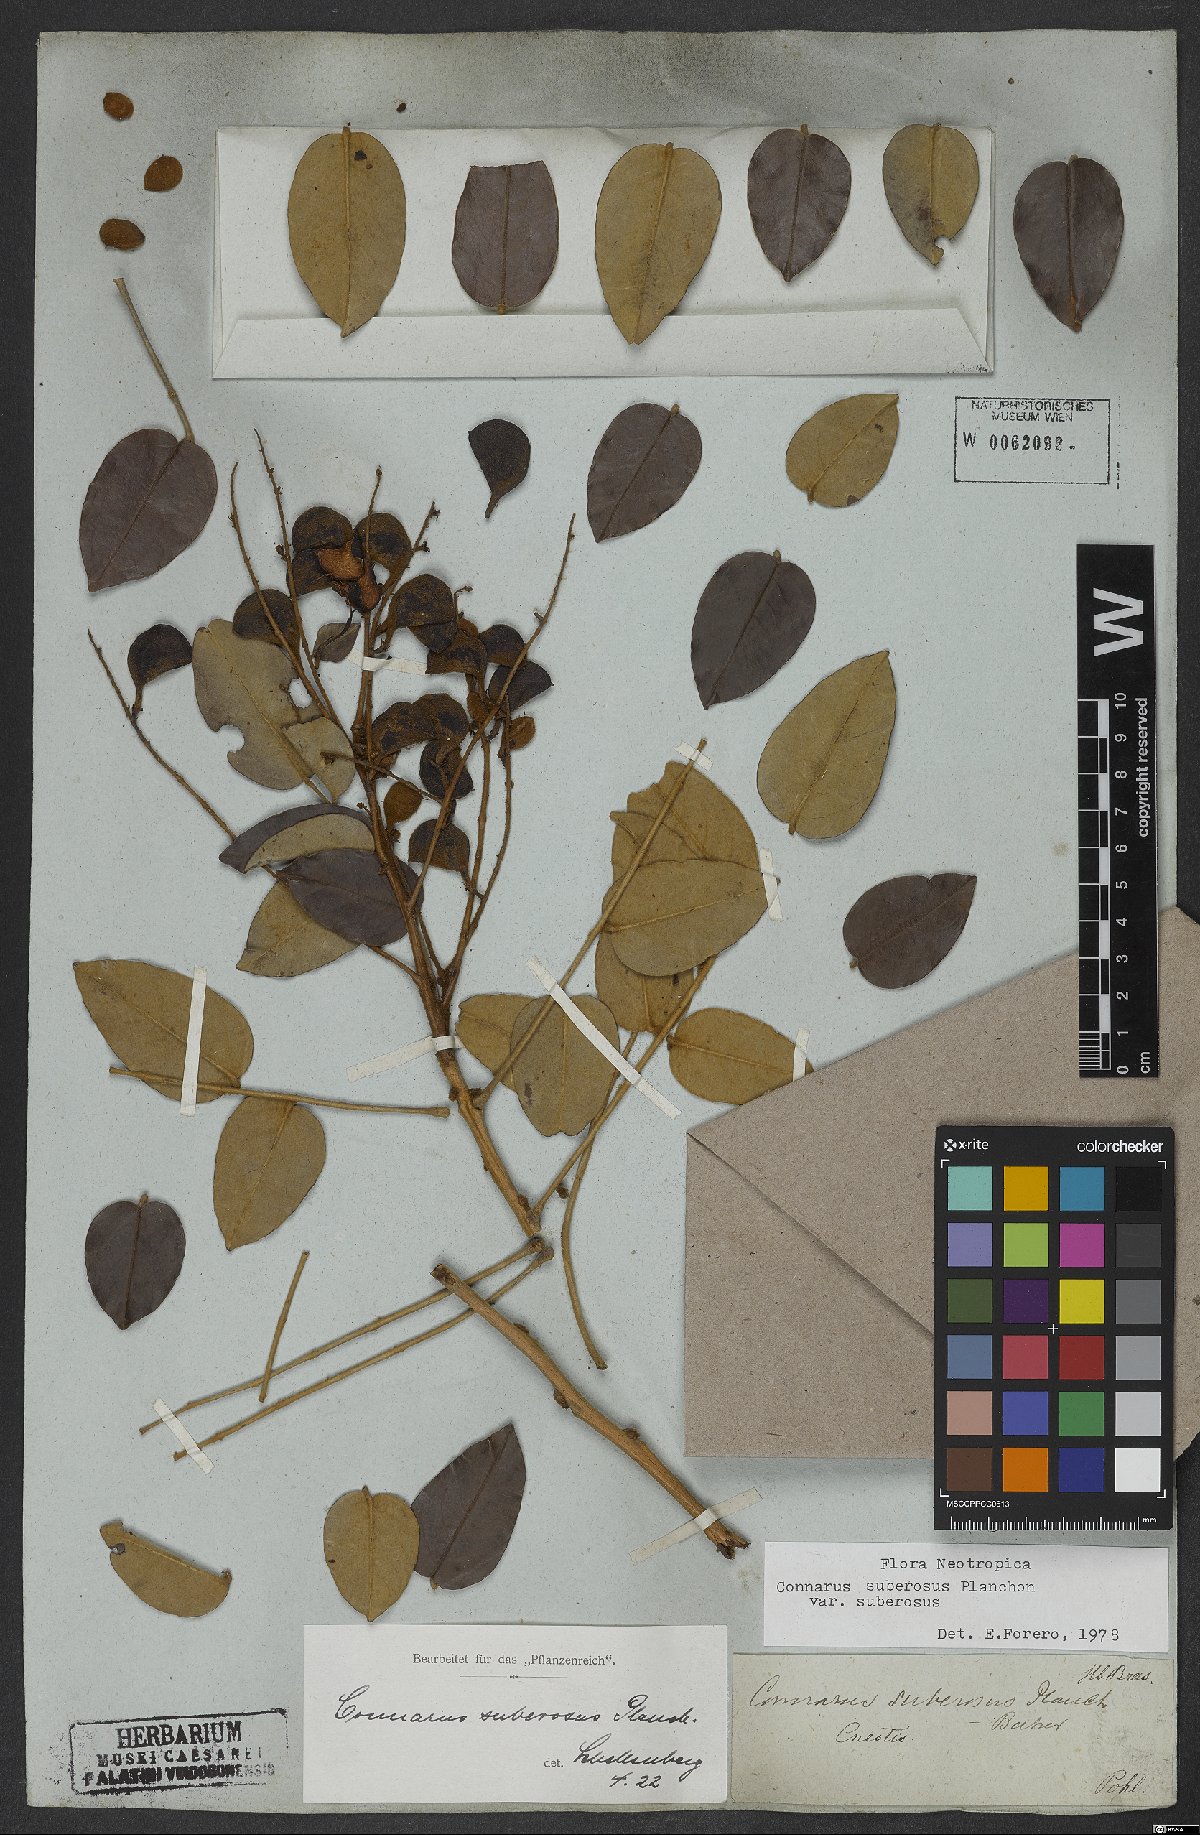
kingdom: Plantae
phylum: Tracheophyta
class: Magnoliopsida
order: Oxalidales
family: Connaraceae
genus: Connarus
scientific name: Connarus suberosus
